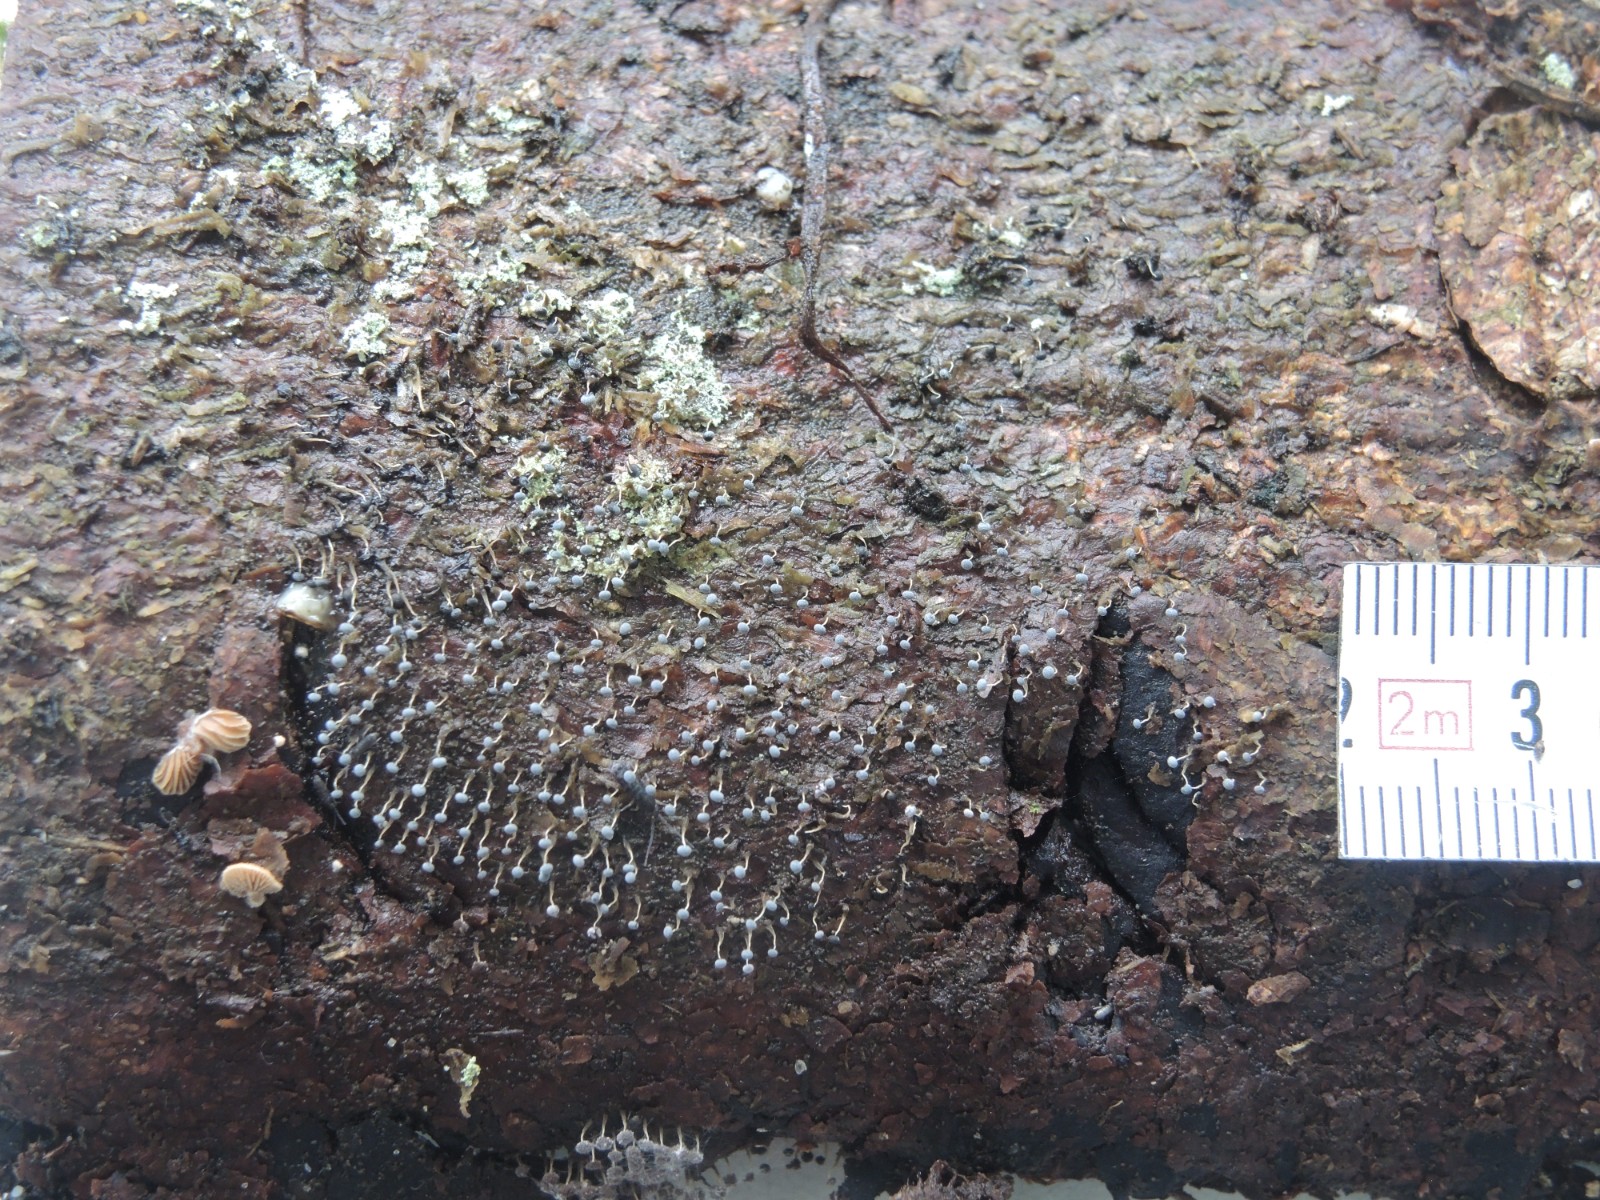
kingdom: Fungi
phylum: Basidiomycota
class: Agaricomycetes
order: Agaricales
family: Strophariaceae
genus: Deconica
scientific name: Deconica horizontalis
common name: ved-stråhat
